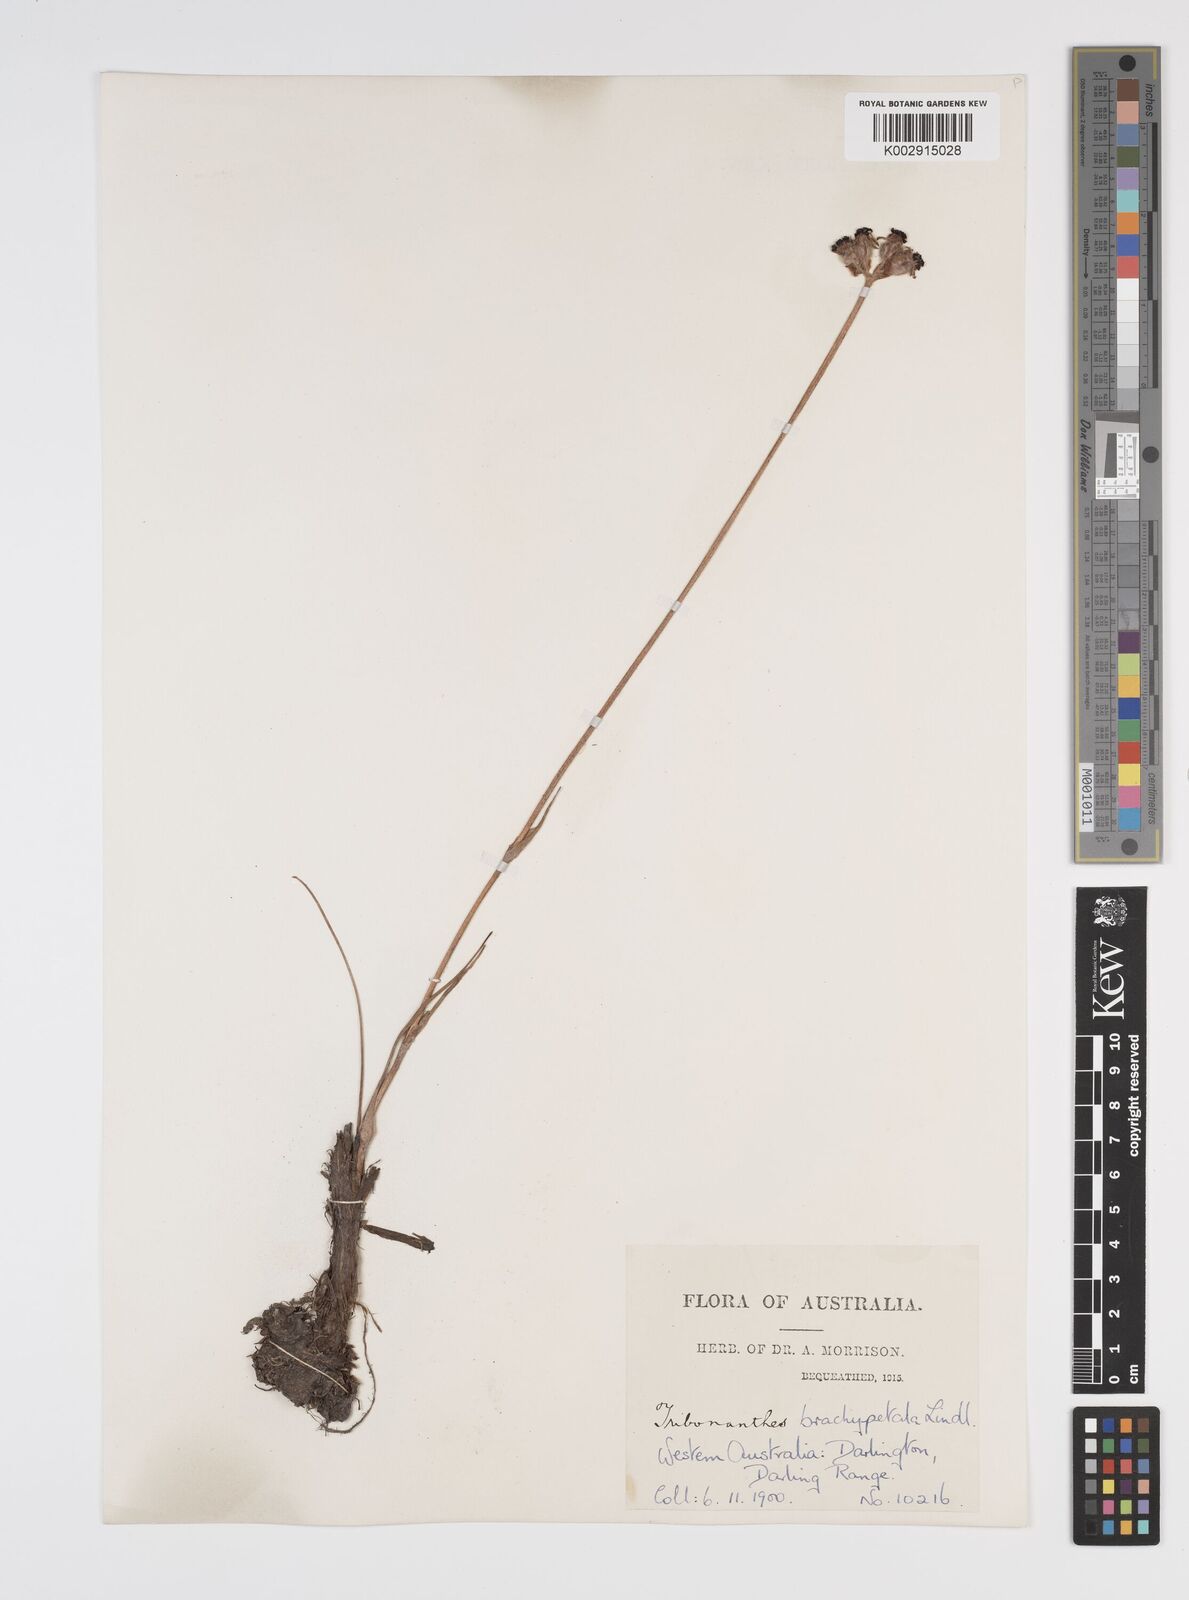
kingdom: Plantae
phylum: Tracheophyta
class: Liliopsida
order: Commelinales
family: Haemodoraceae
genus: Tribonanthes
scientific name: Tribonanthes brachypetala
